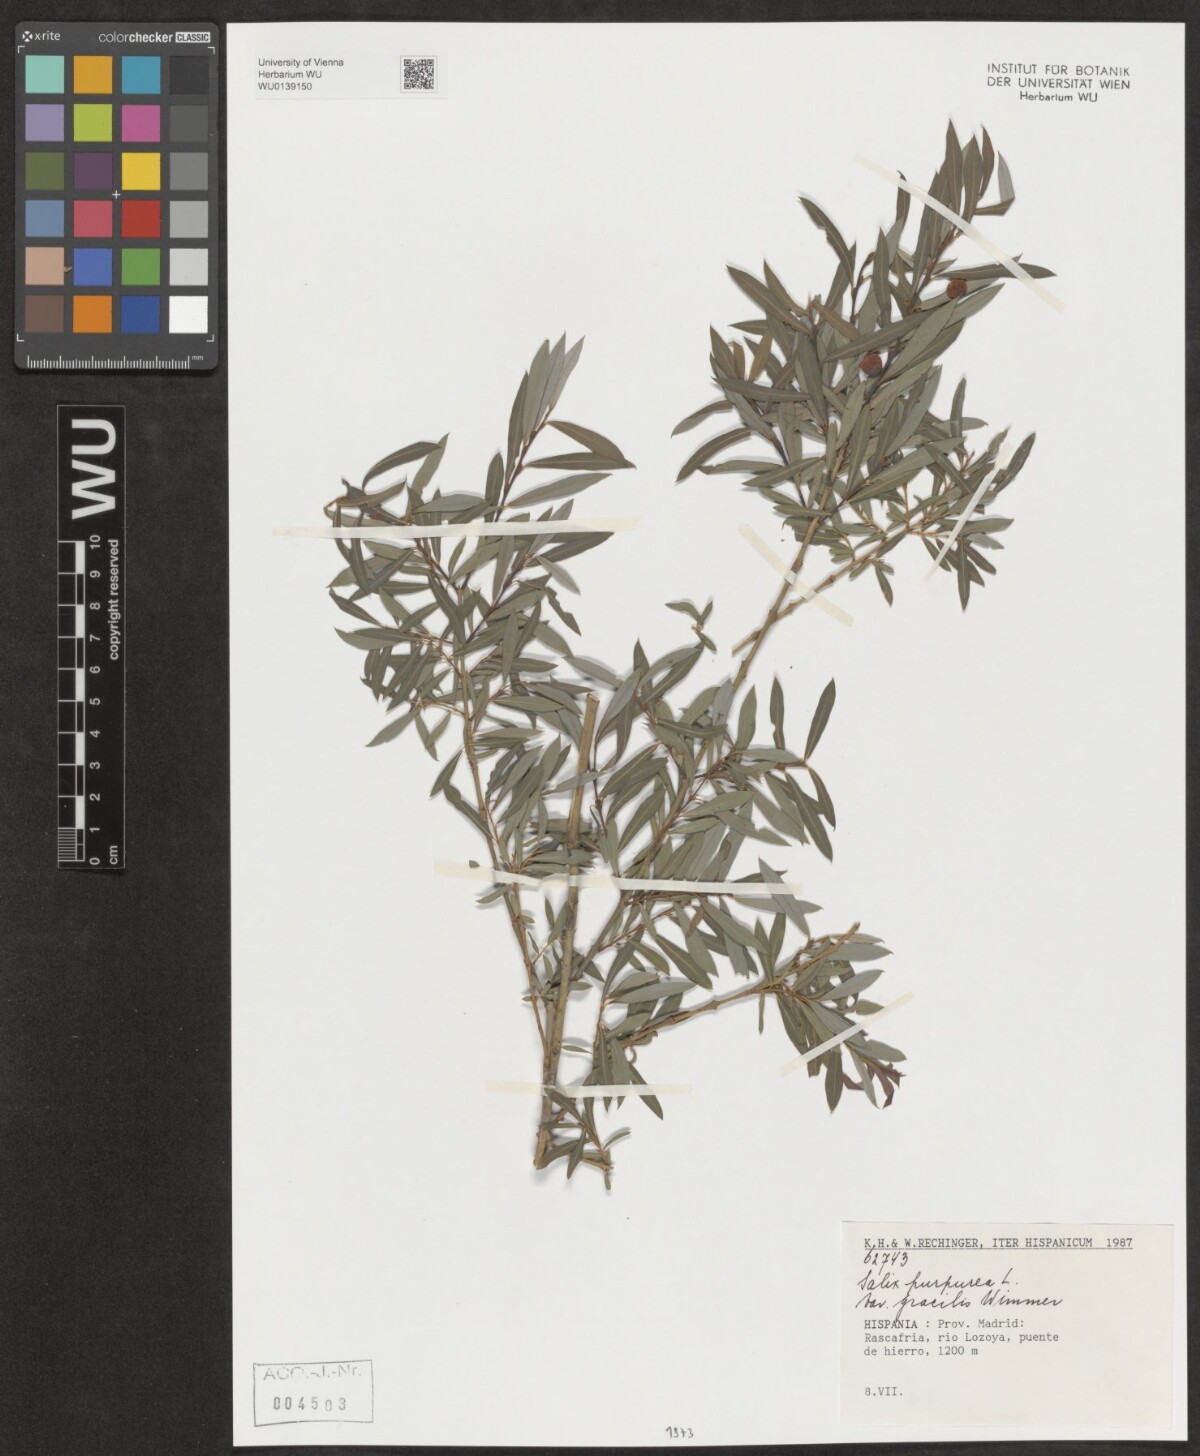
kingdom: Plantae
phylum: Tracheophyta
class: Magnoliopsida
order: Malpighiales
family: Salicaceae
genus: Salix
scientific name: Salix purpurea
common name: Purple willow
